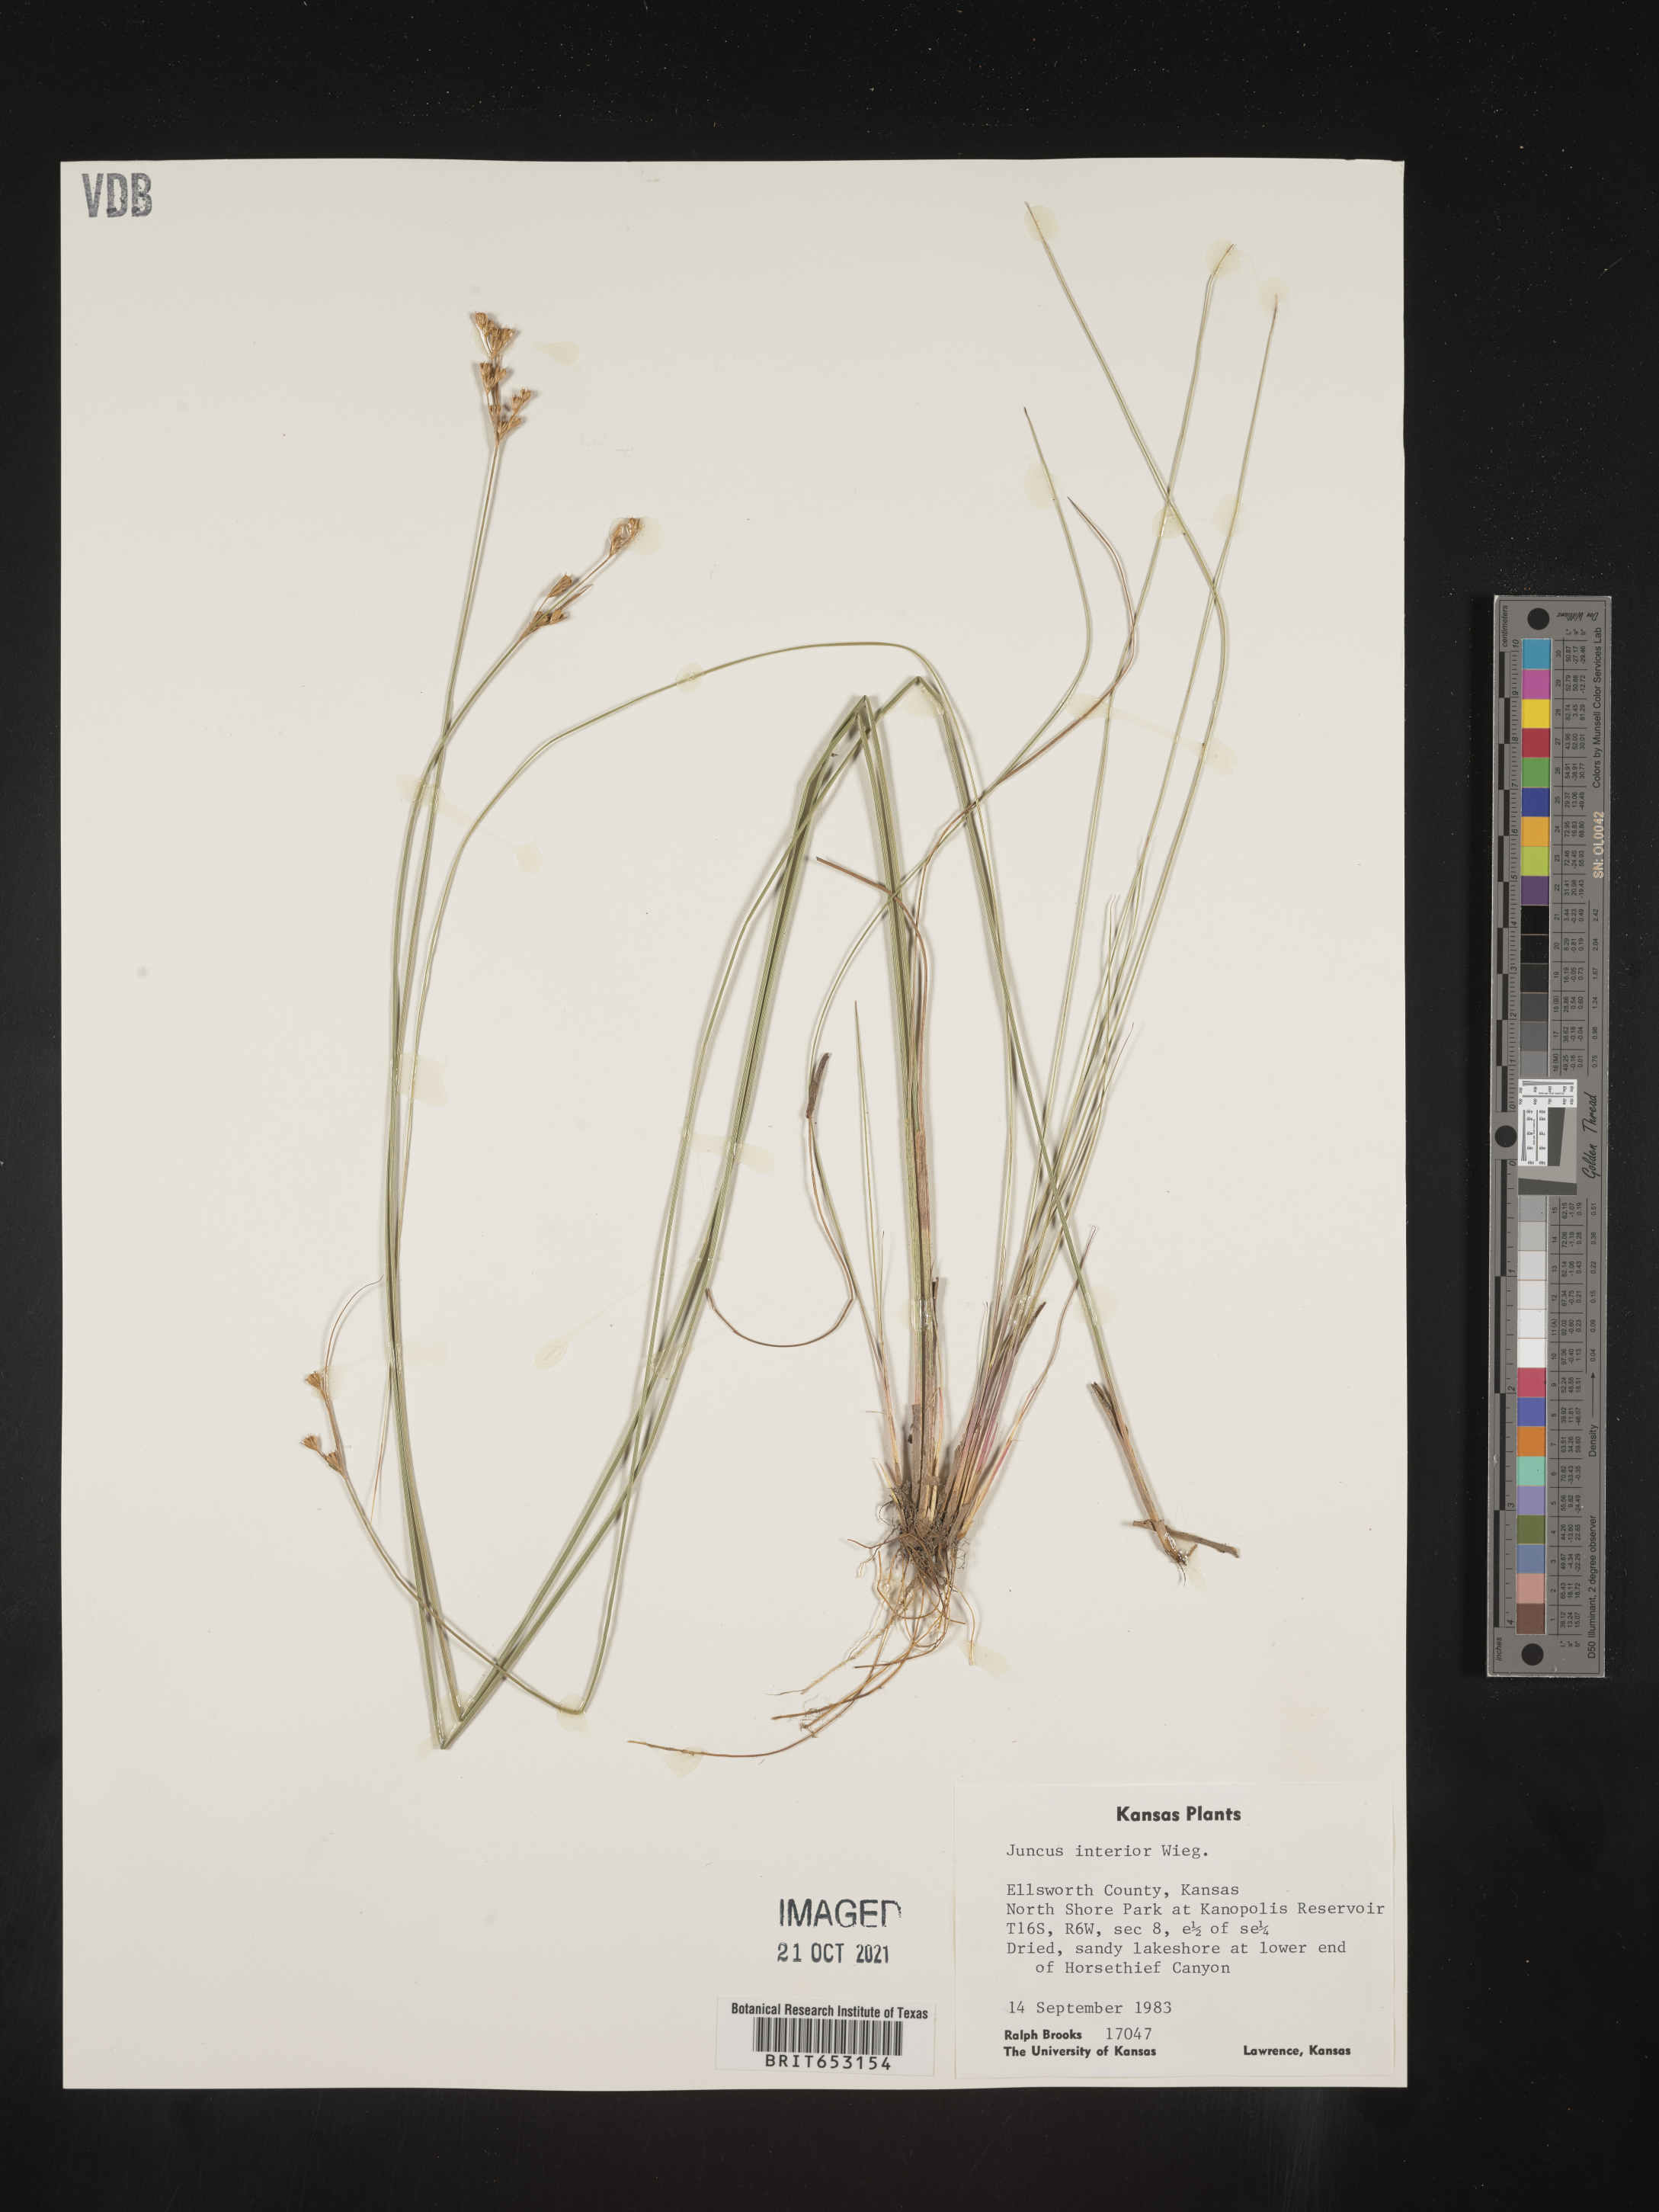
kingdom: Plantae
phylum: Tracheophyta
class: Liliopsida
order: Poales
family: Juncaceae
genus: Juncus
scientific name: Juncus interior
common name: Interior rush
